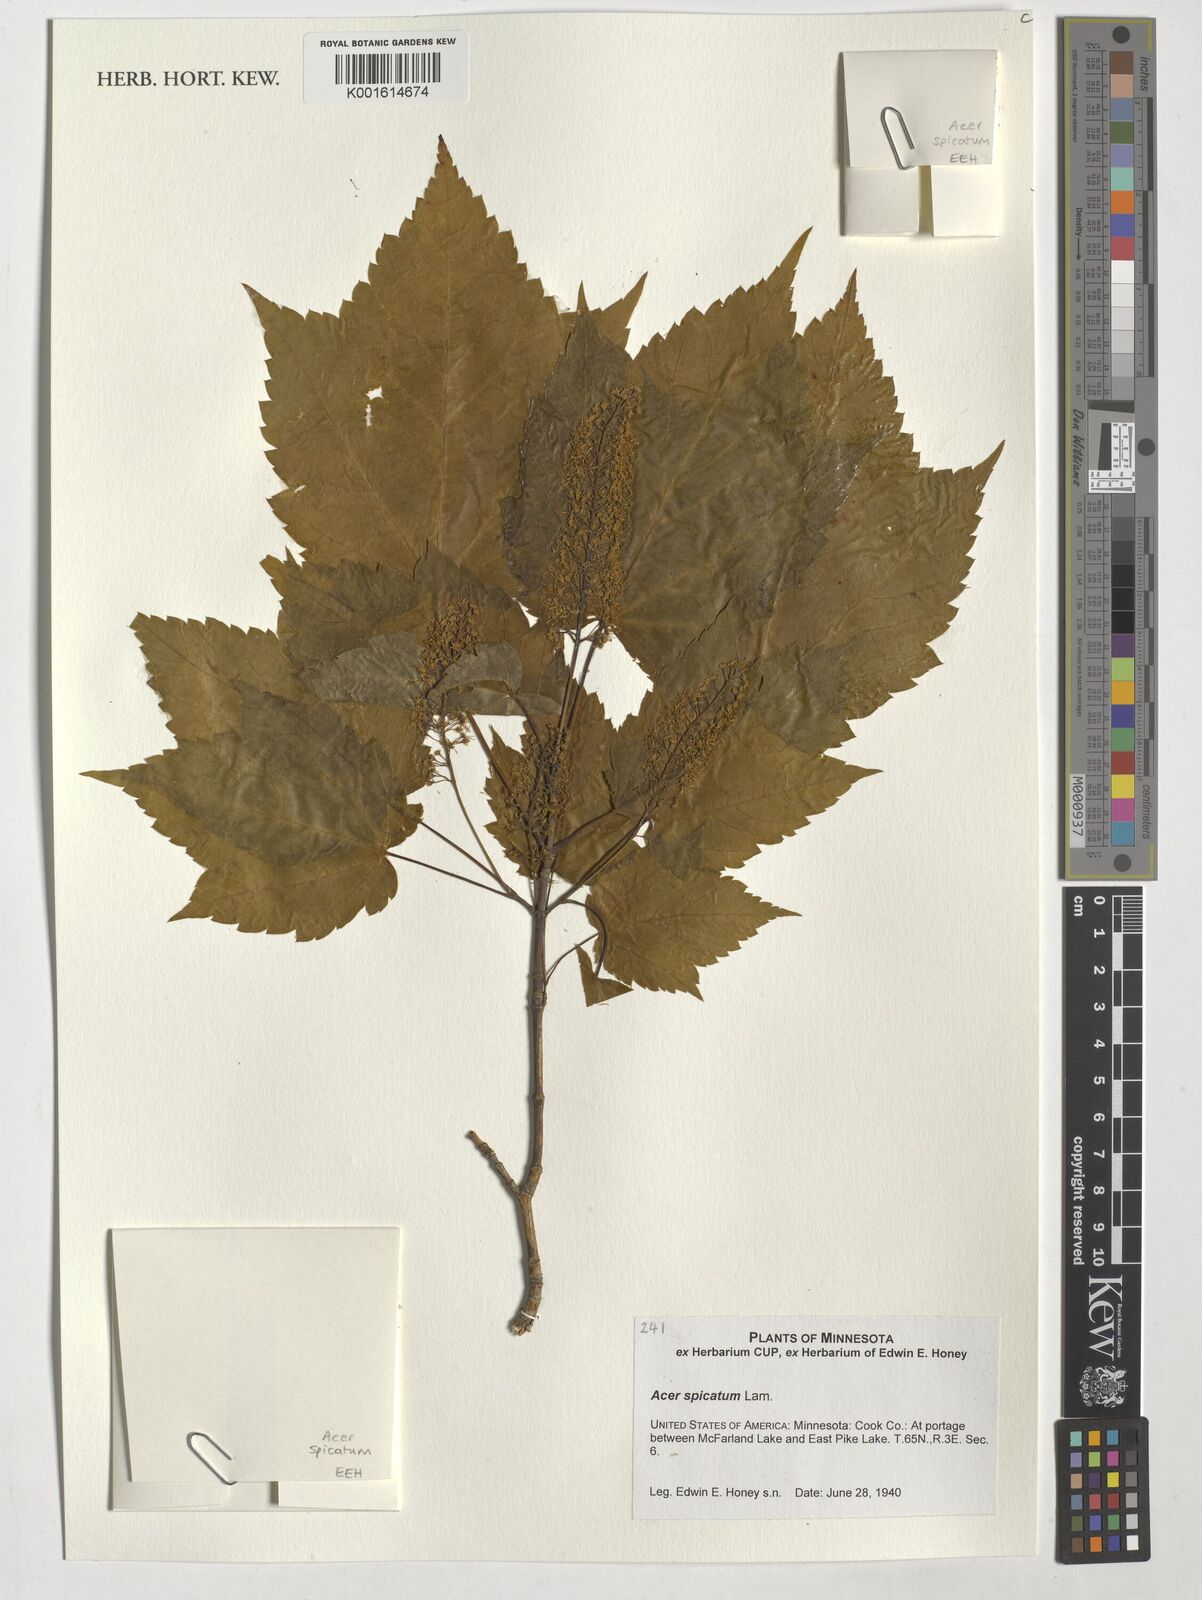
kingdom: Plantae
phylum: Tracheophyta
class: Magnoliopsida
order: Sapindales
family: Sapindaceae
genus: Acer
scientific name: Acer spicatum
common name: Mountain maple
